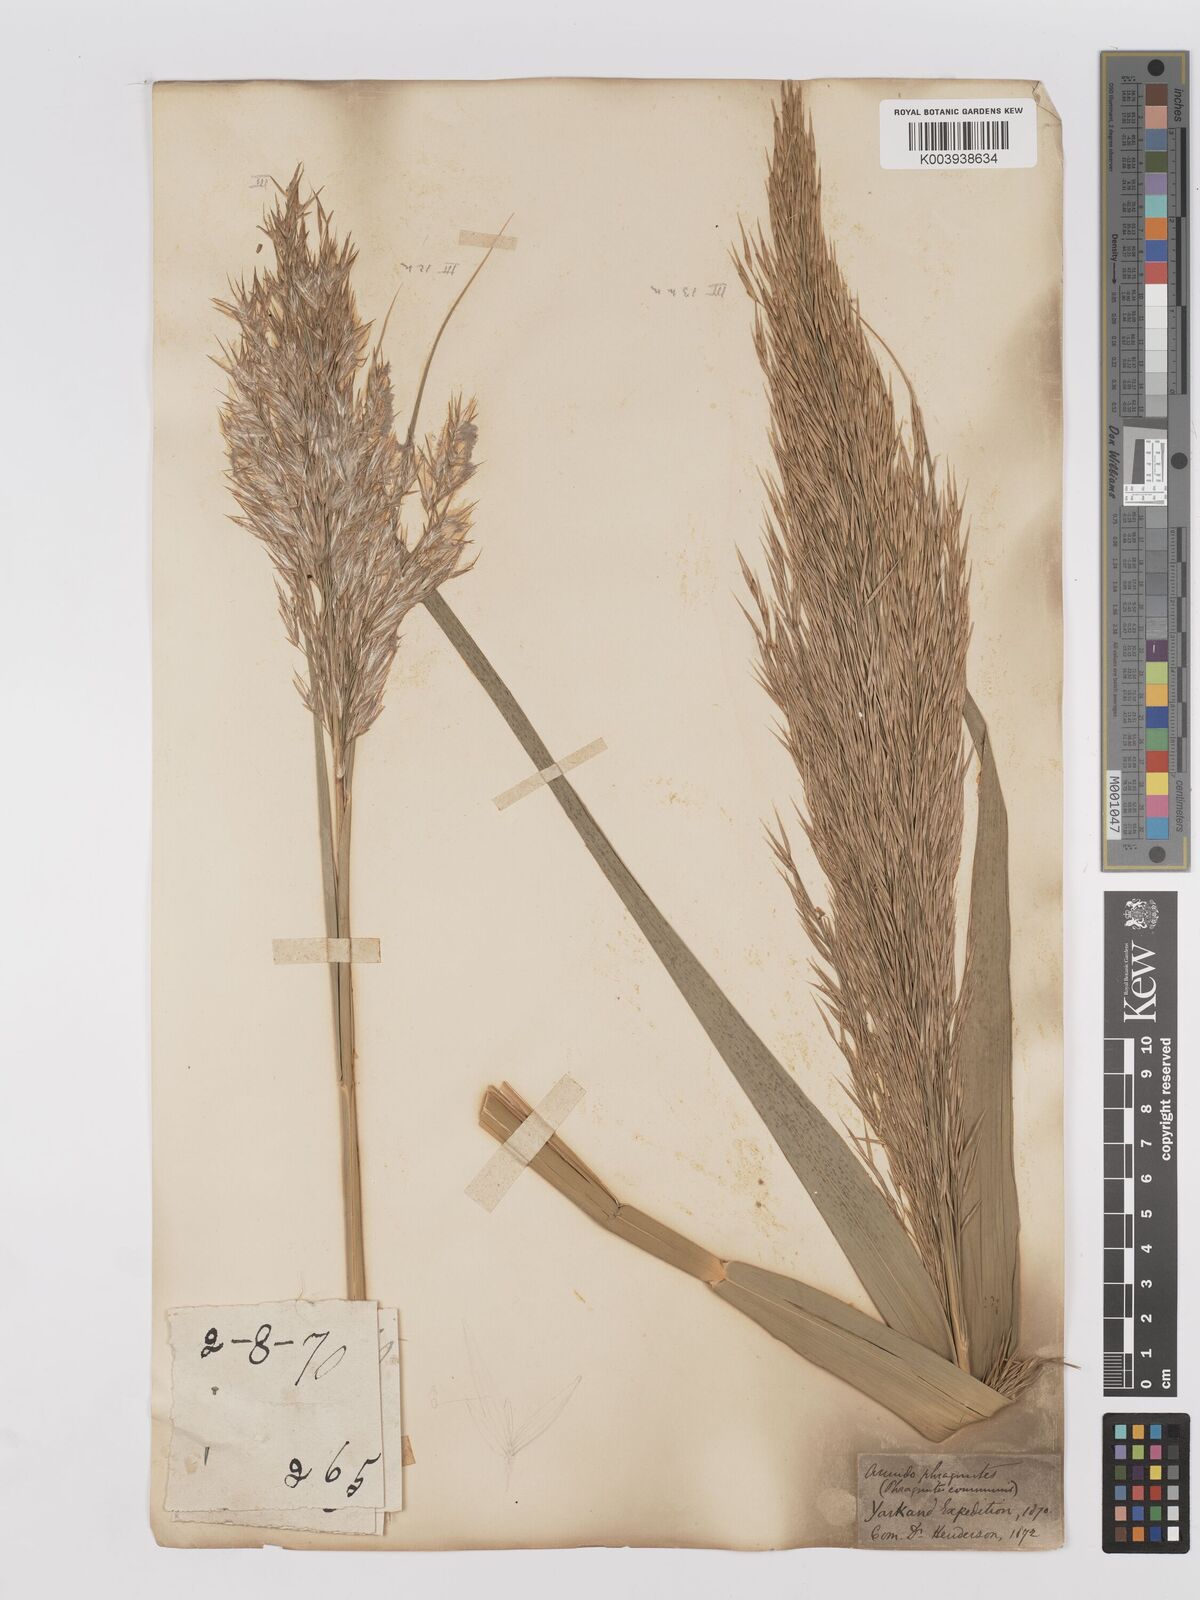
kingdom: Plantae
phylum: Tracheophyta
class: Liliopsida
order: Poales
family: Poaceae
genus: Phragmites
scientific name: Phragmites australis
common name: Common reed
